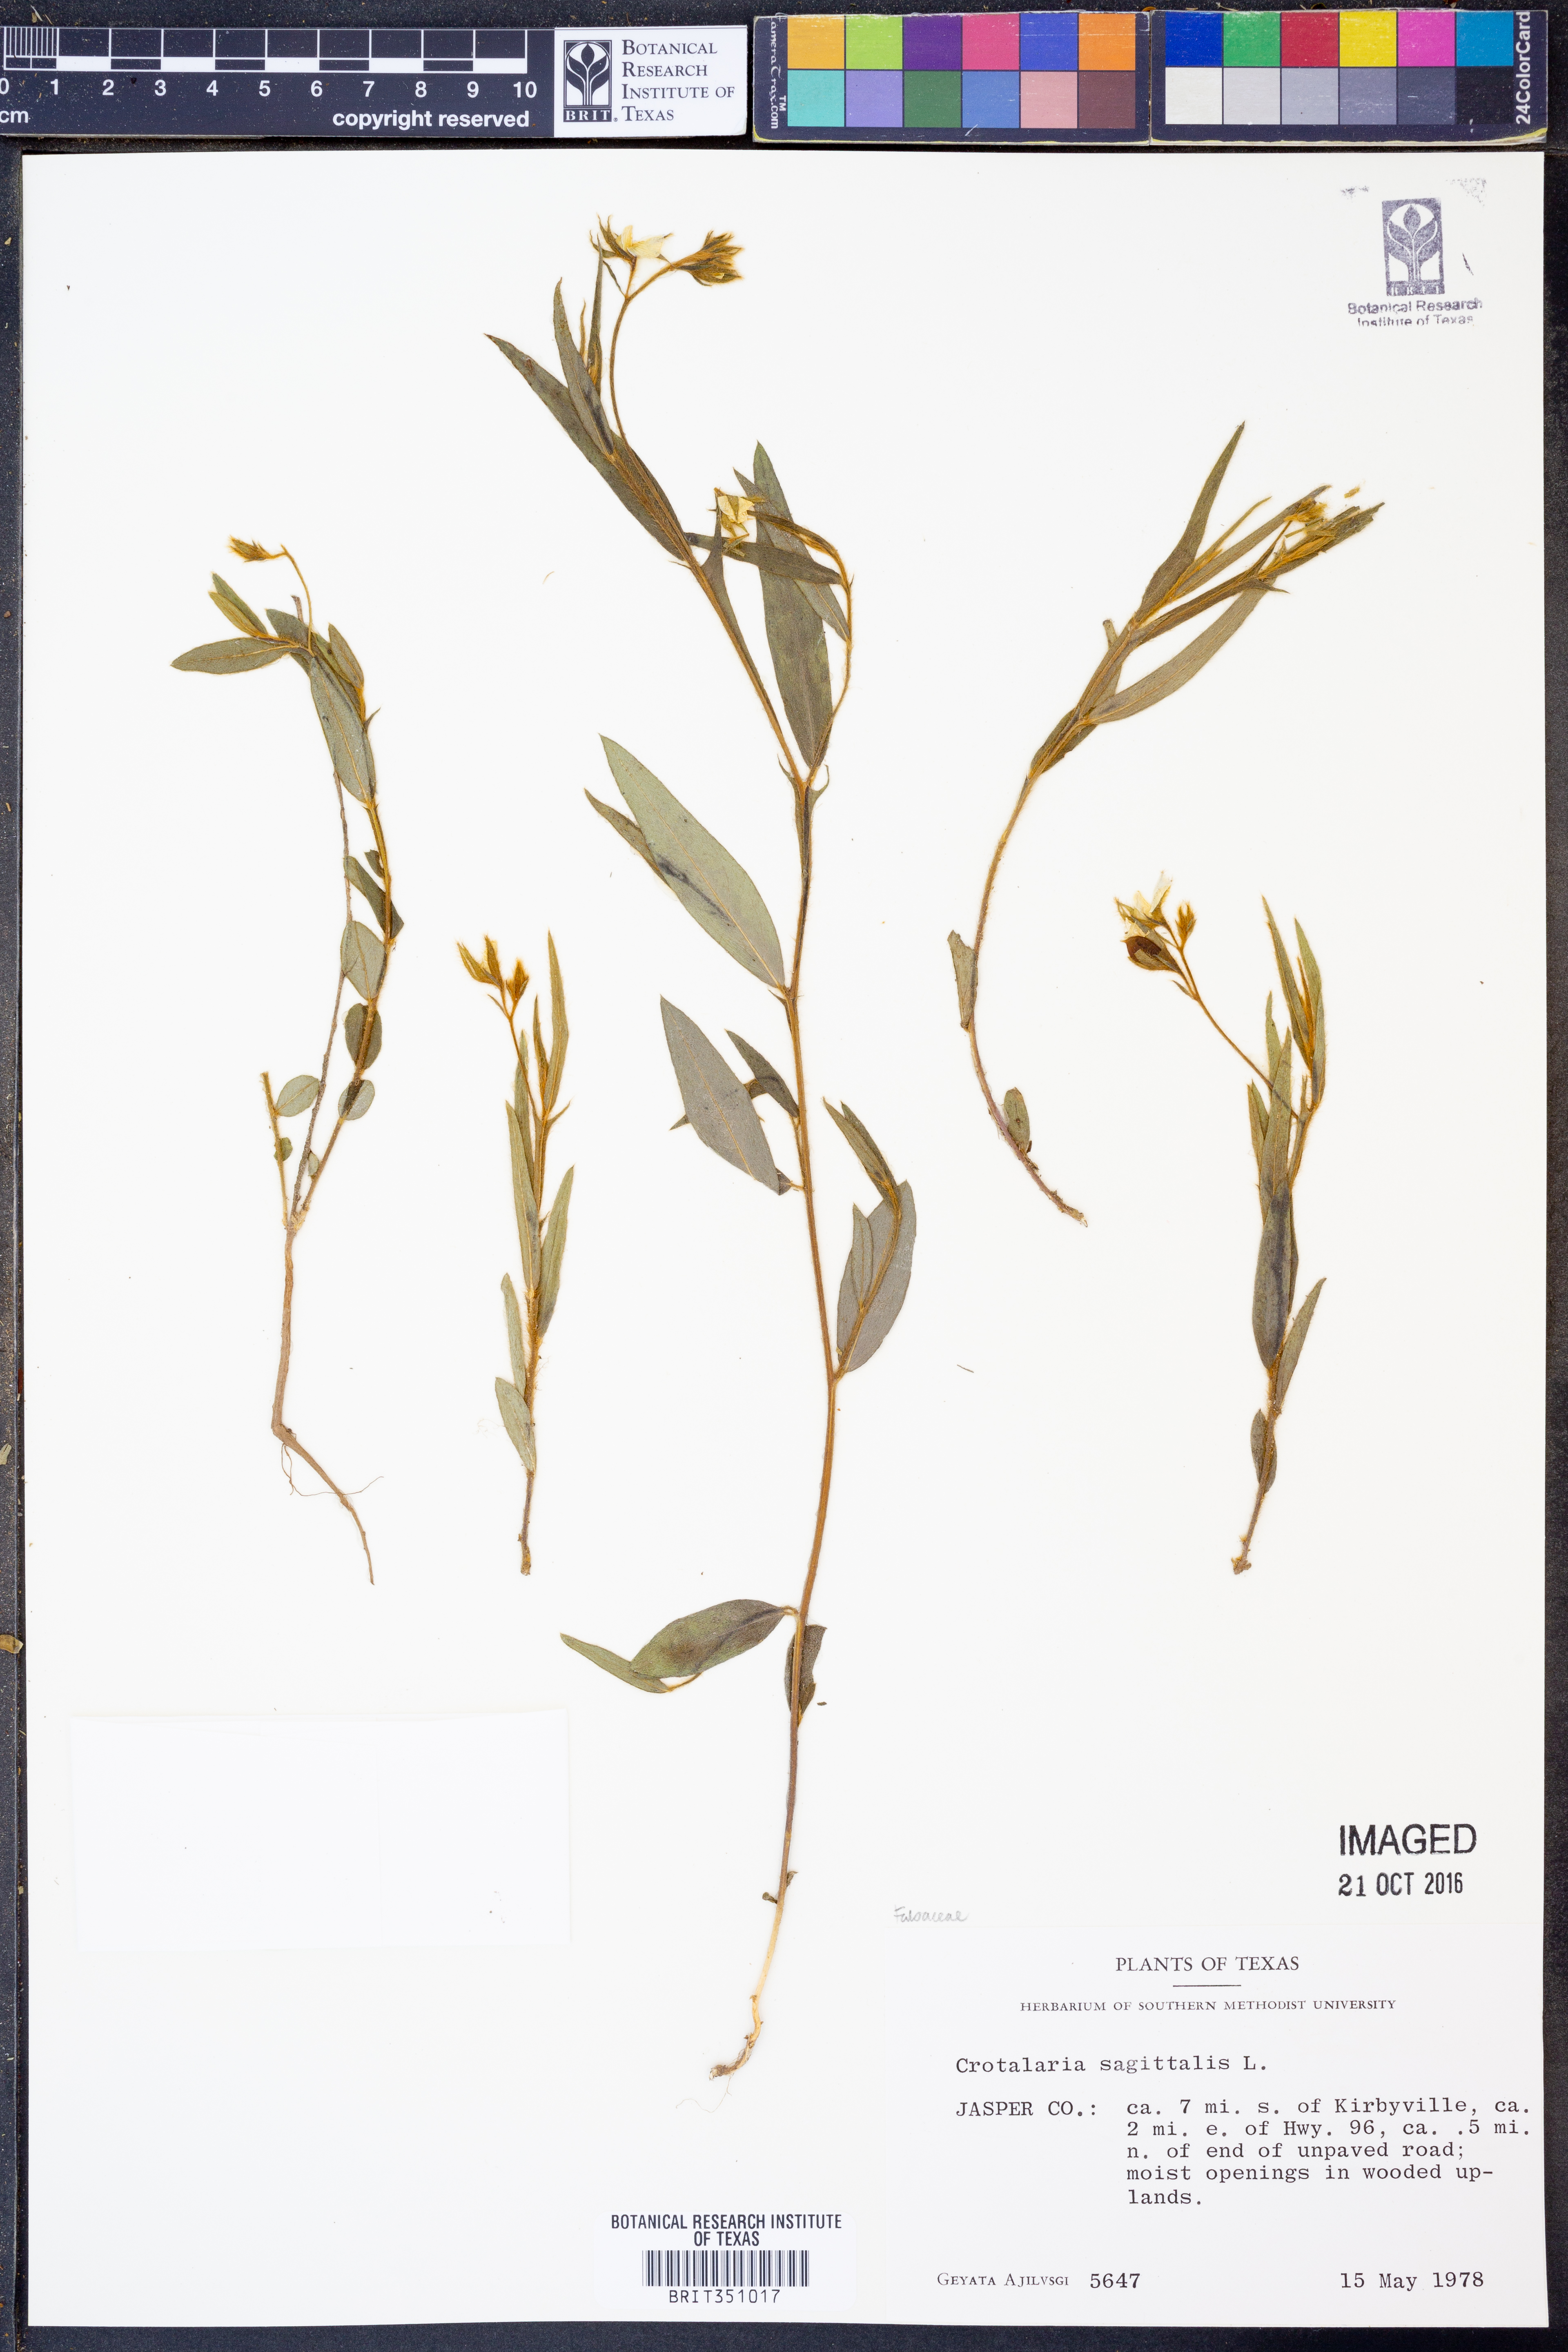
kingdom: Plantae
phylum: Tracheophyta
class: Magnoliopsida
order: Fabales
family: Fabaceae
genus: Crotalaria
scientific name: Crotalaria sagittalis
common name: Arrowhead rattlebox
